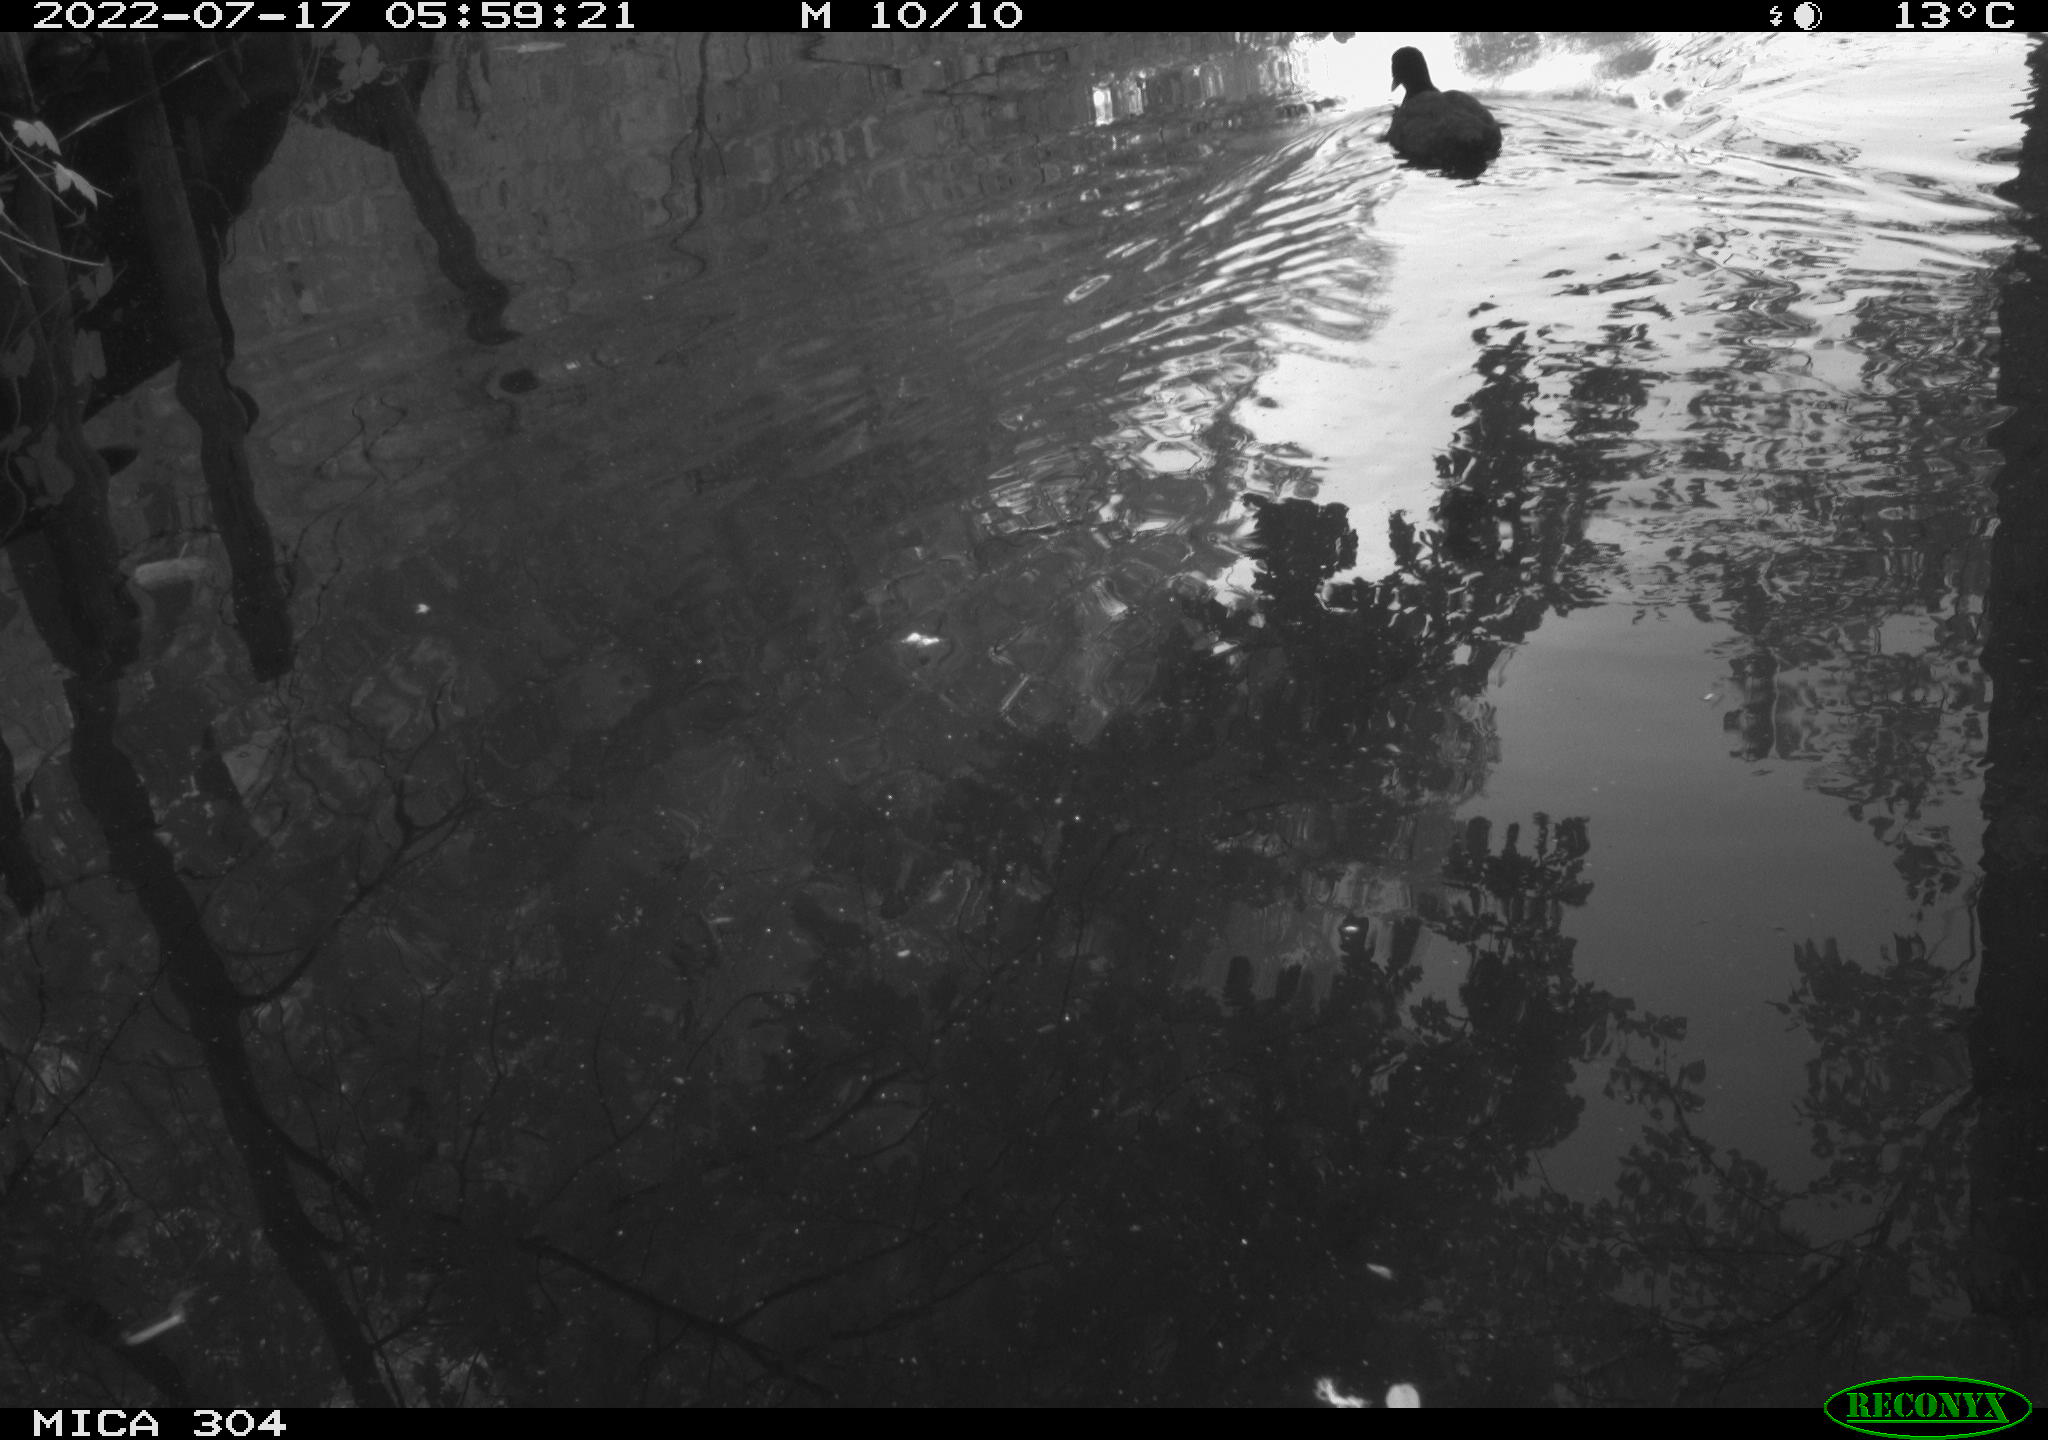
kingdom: Animalia
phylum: Chordata
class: Aves
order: Gruiformes
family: Rallidae
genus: Fulica
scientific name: Fulica atra
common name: Eurasian coot
